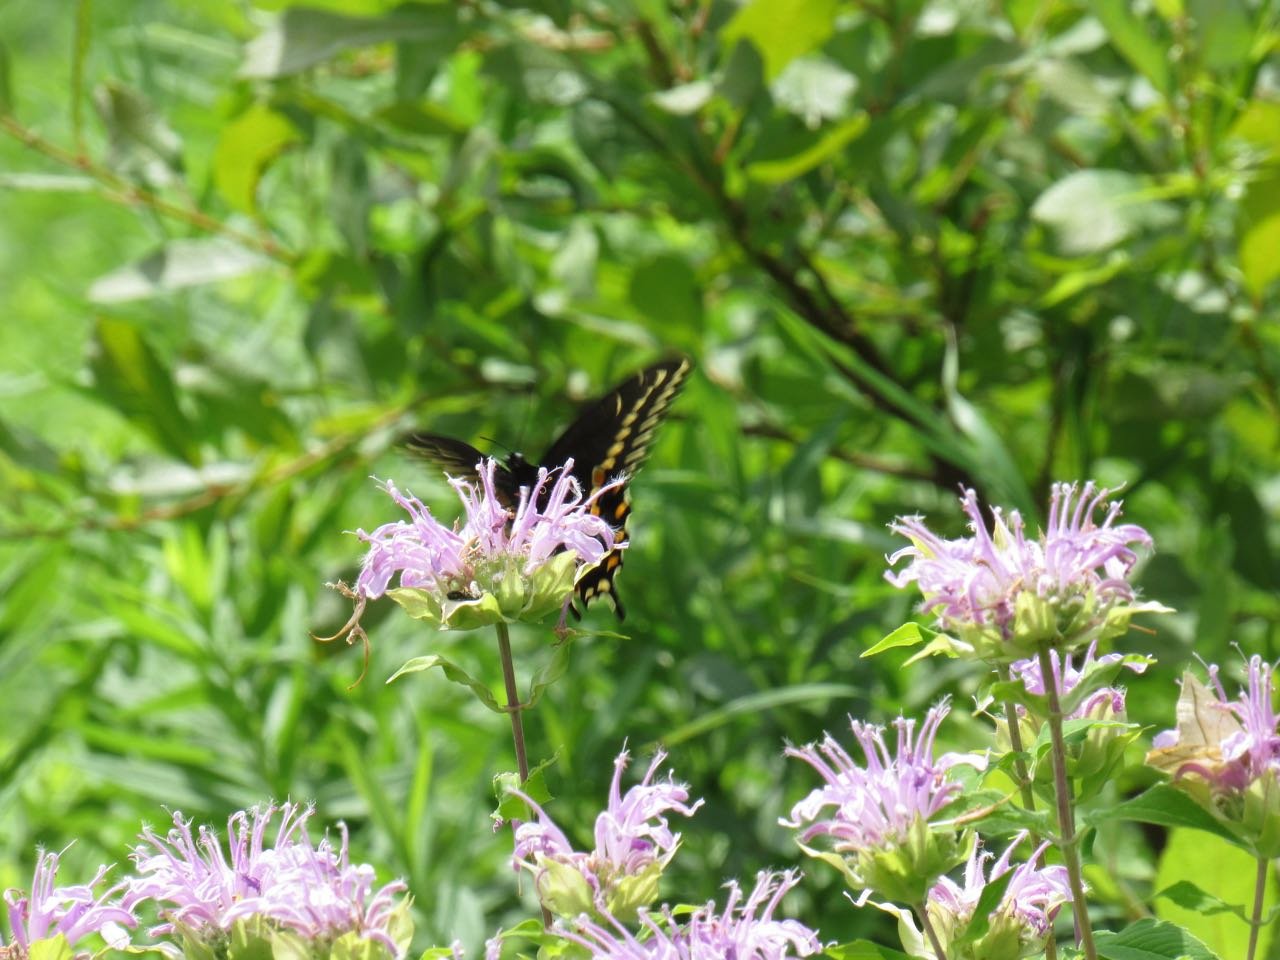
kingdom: Animalia
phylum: Arthropoda
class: Insecta
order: Lepidoptera
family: Papilionidae
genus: Papilio
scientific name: Papilio polyxenes
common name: Black Swallowtail
